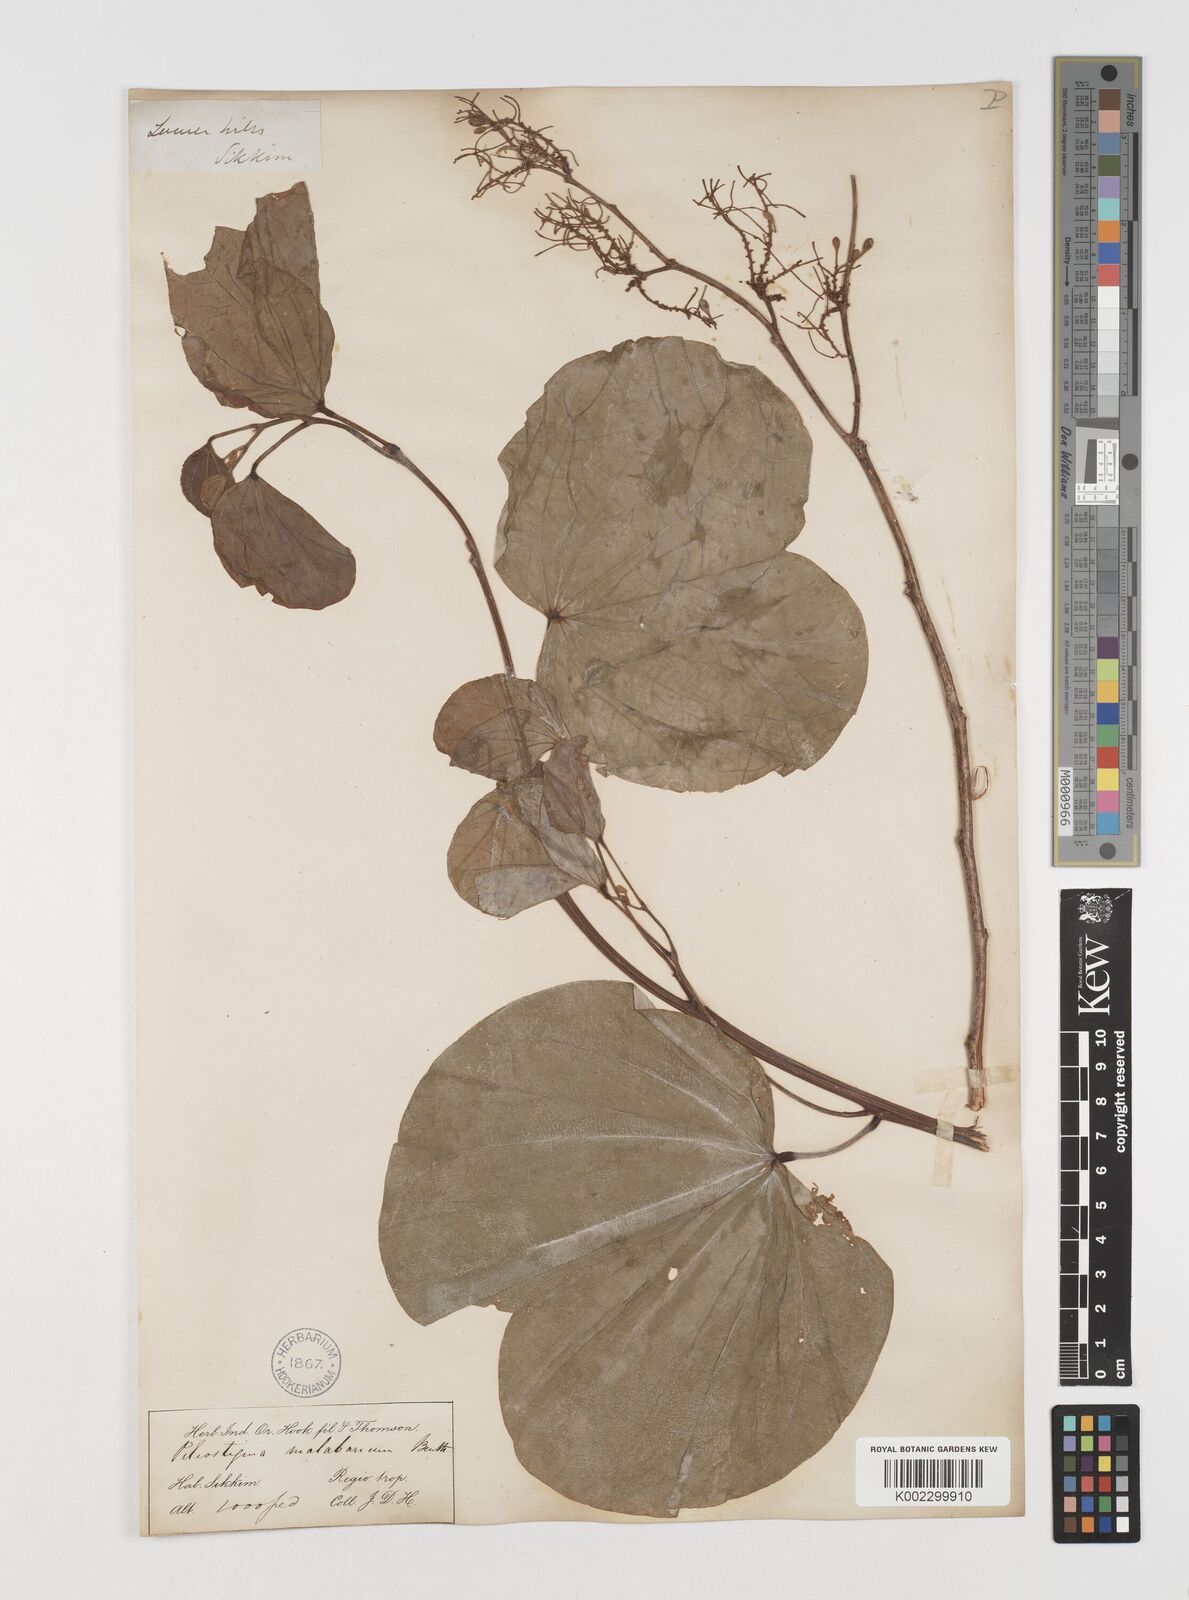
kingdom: Plantae
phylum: Tracheophyta
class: Magnoliopsida
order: Fabales
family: Fabaceae
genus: Piliostigma
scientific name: Piliostigma malabaricum
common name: Malabar bauhinia
